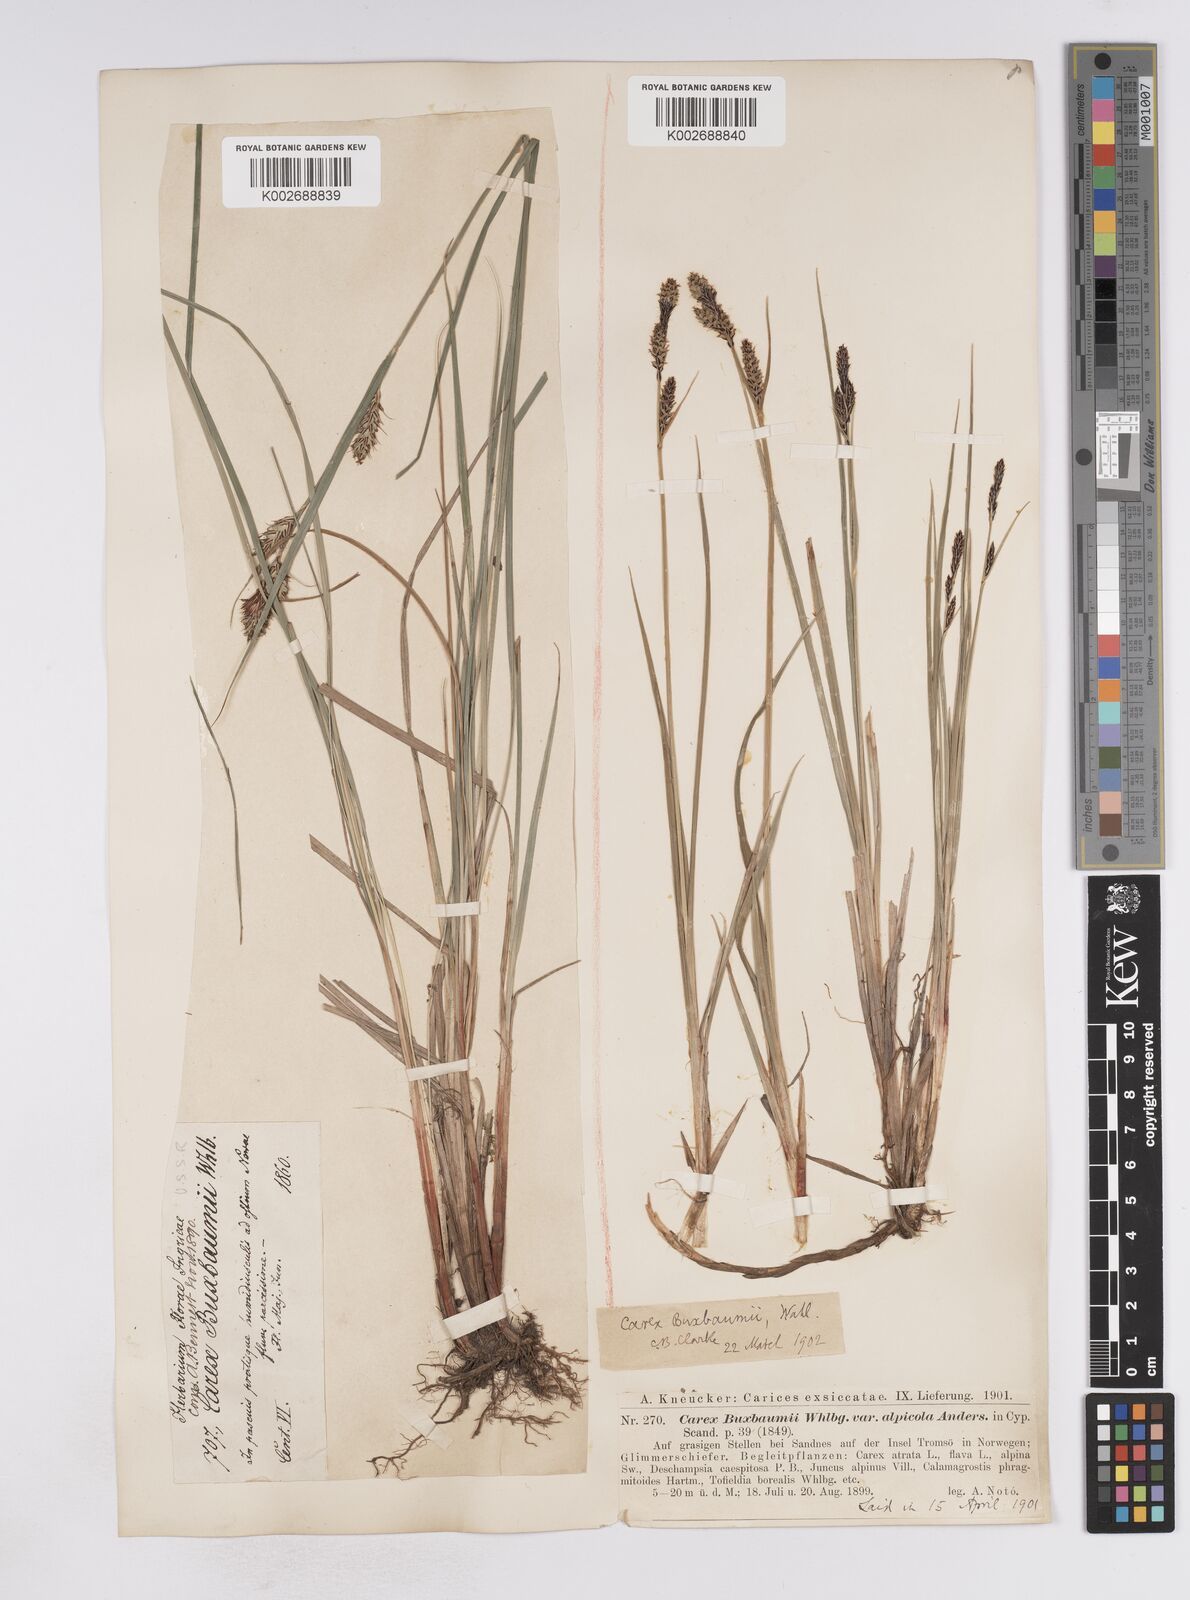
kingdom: Plantae
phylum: Tracheophyta
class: Liliopsida
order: Poales
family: Cyperaceae
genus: Carex
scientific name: Carex buxbaumii
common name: Club sedge
